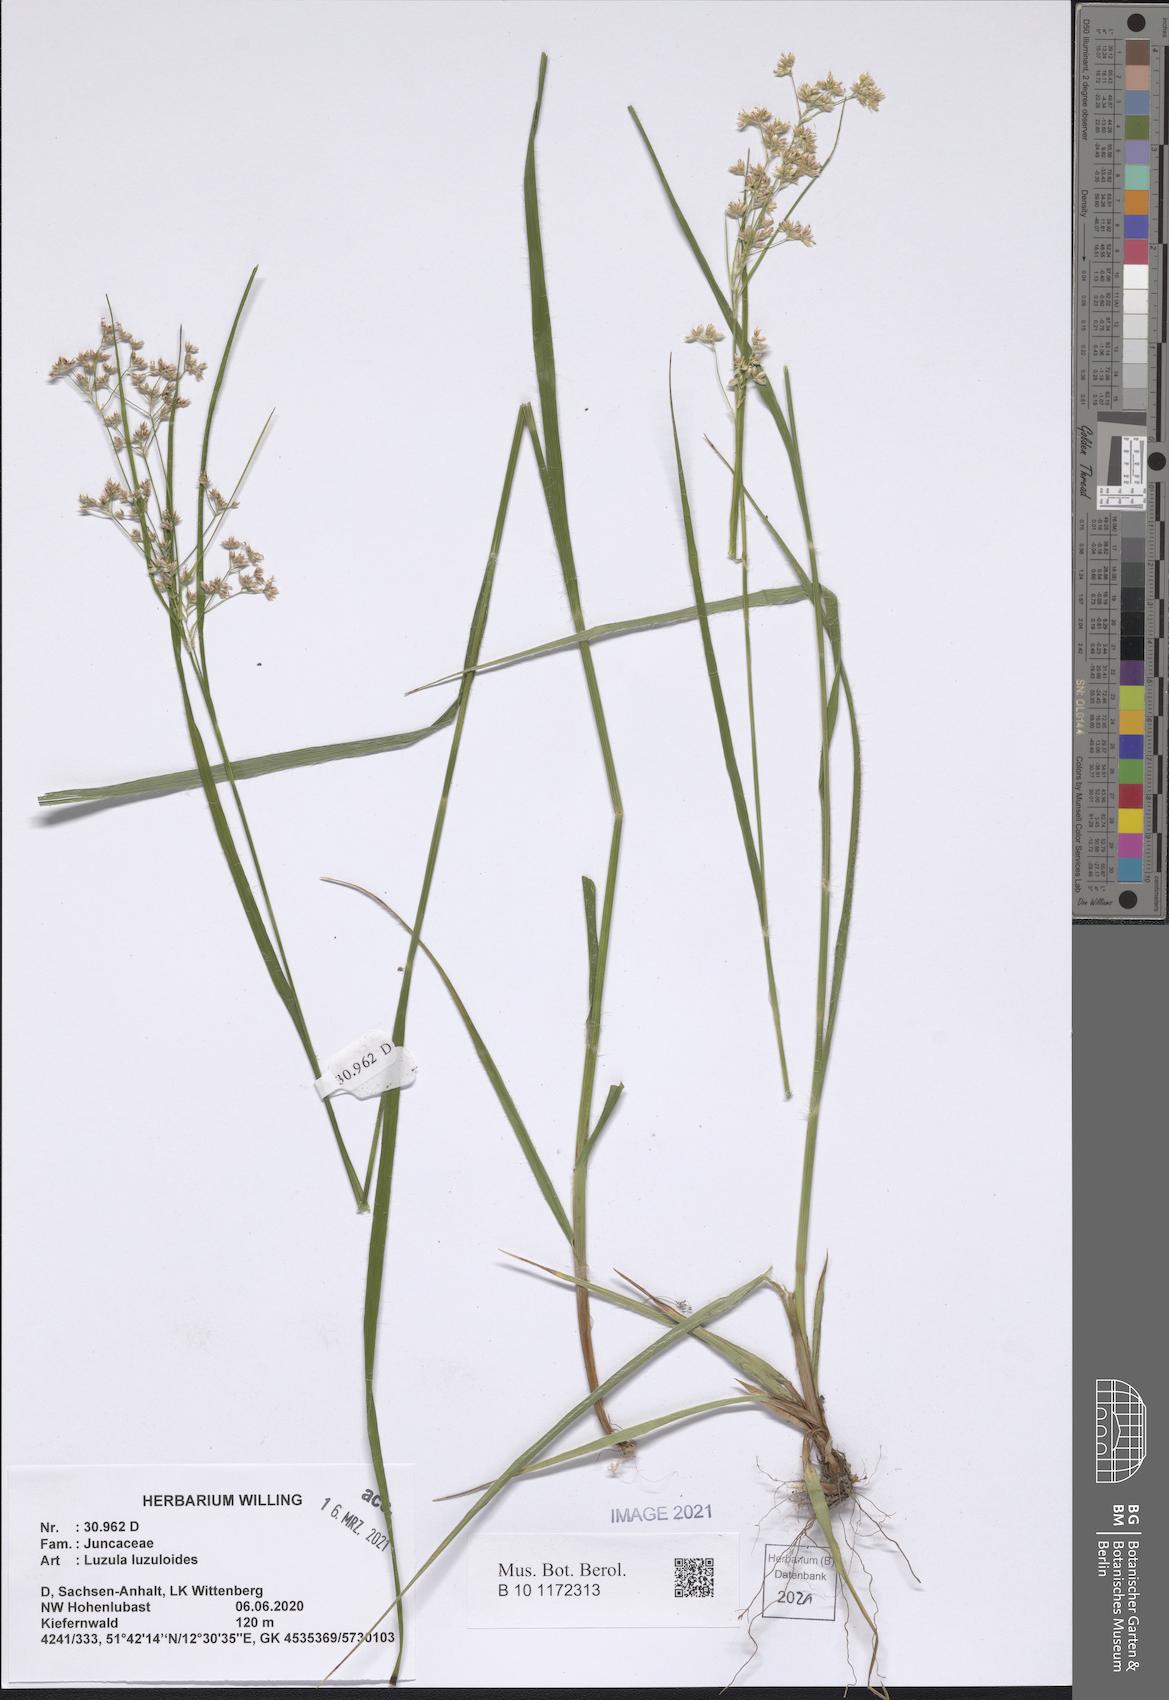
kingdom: Plantae
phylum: Tracheophyta
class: Liliopsida
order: Poales
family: Juncaceae
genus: Luzula
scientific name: Luzula luzuloides
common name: White wood-rush
